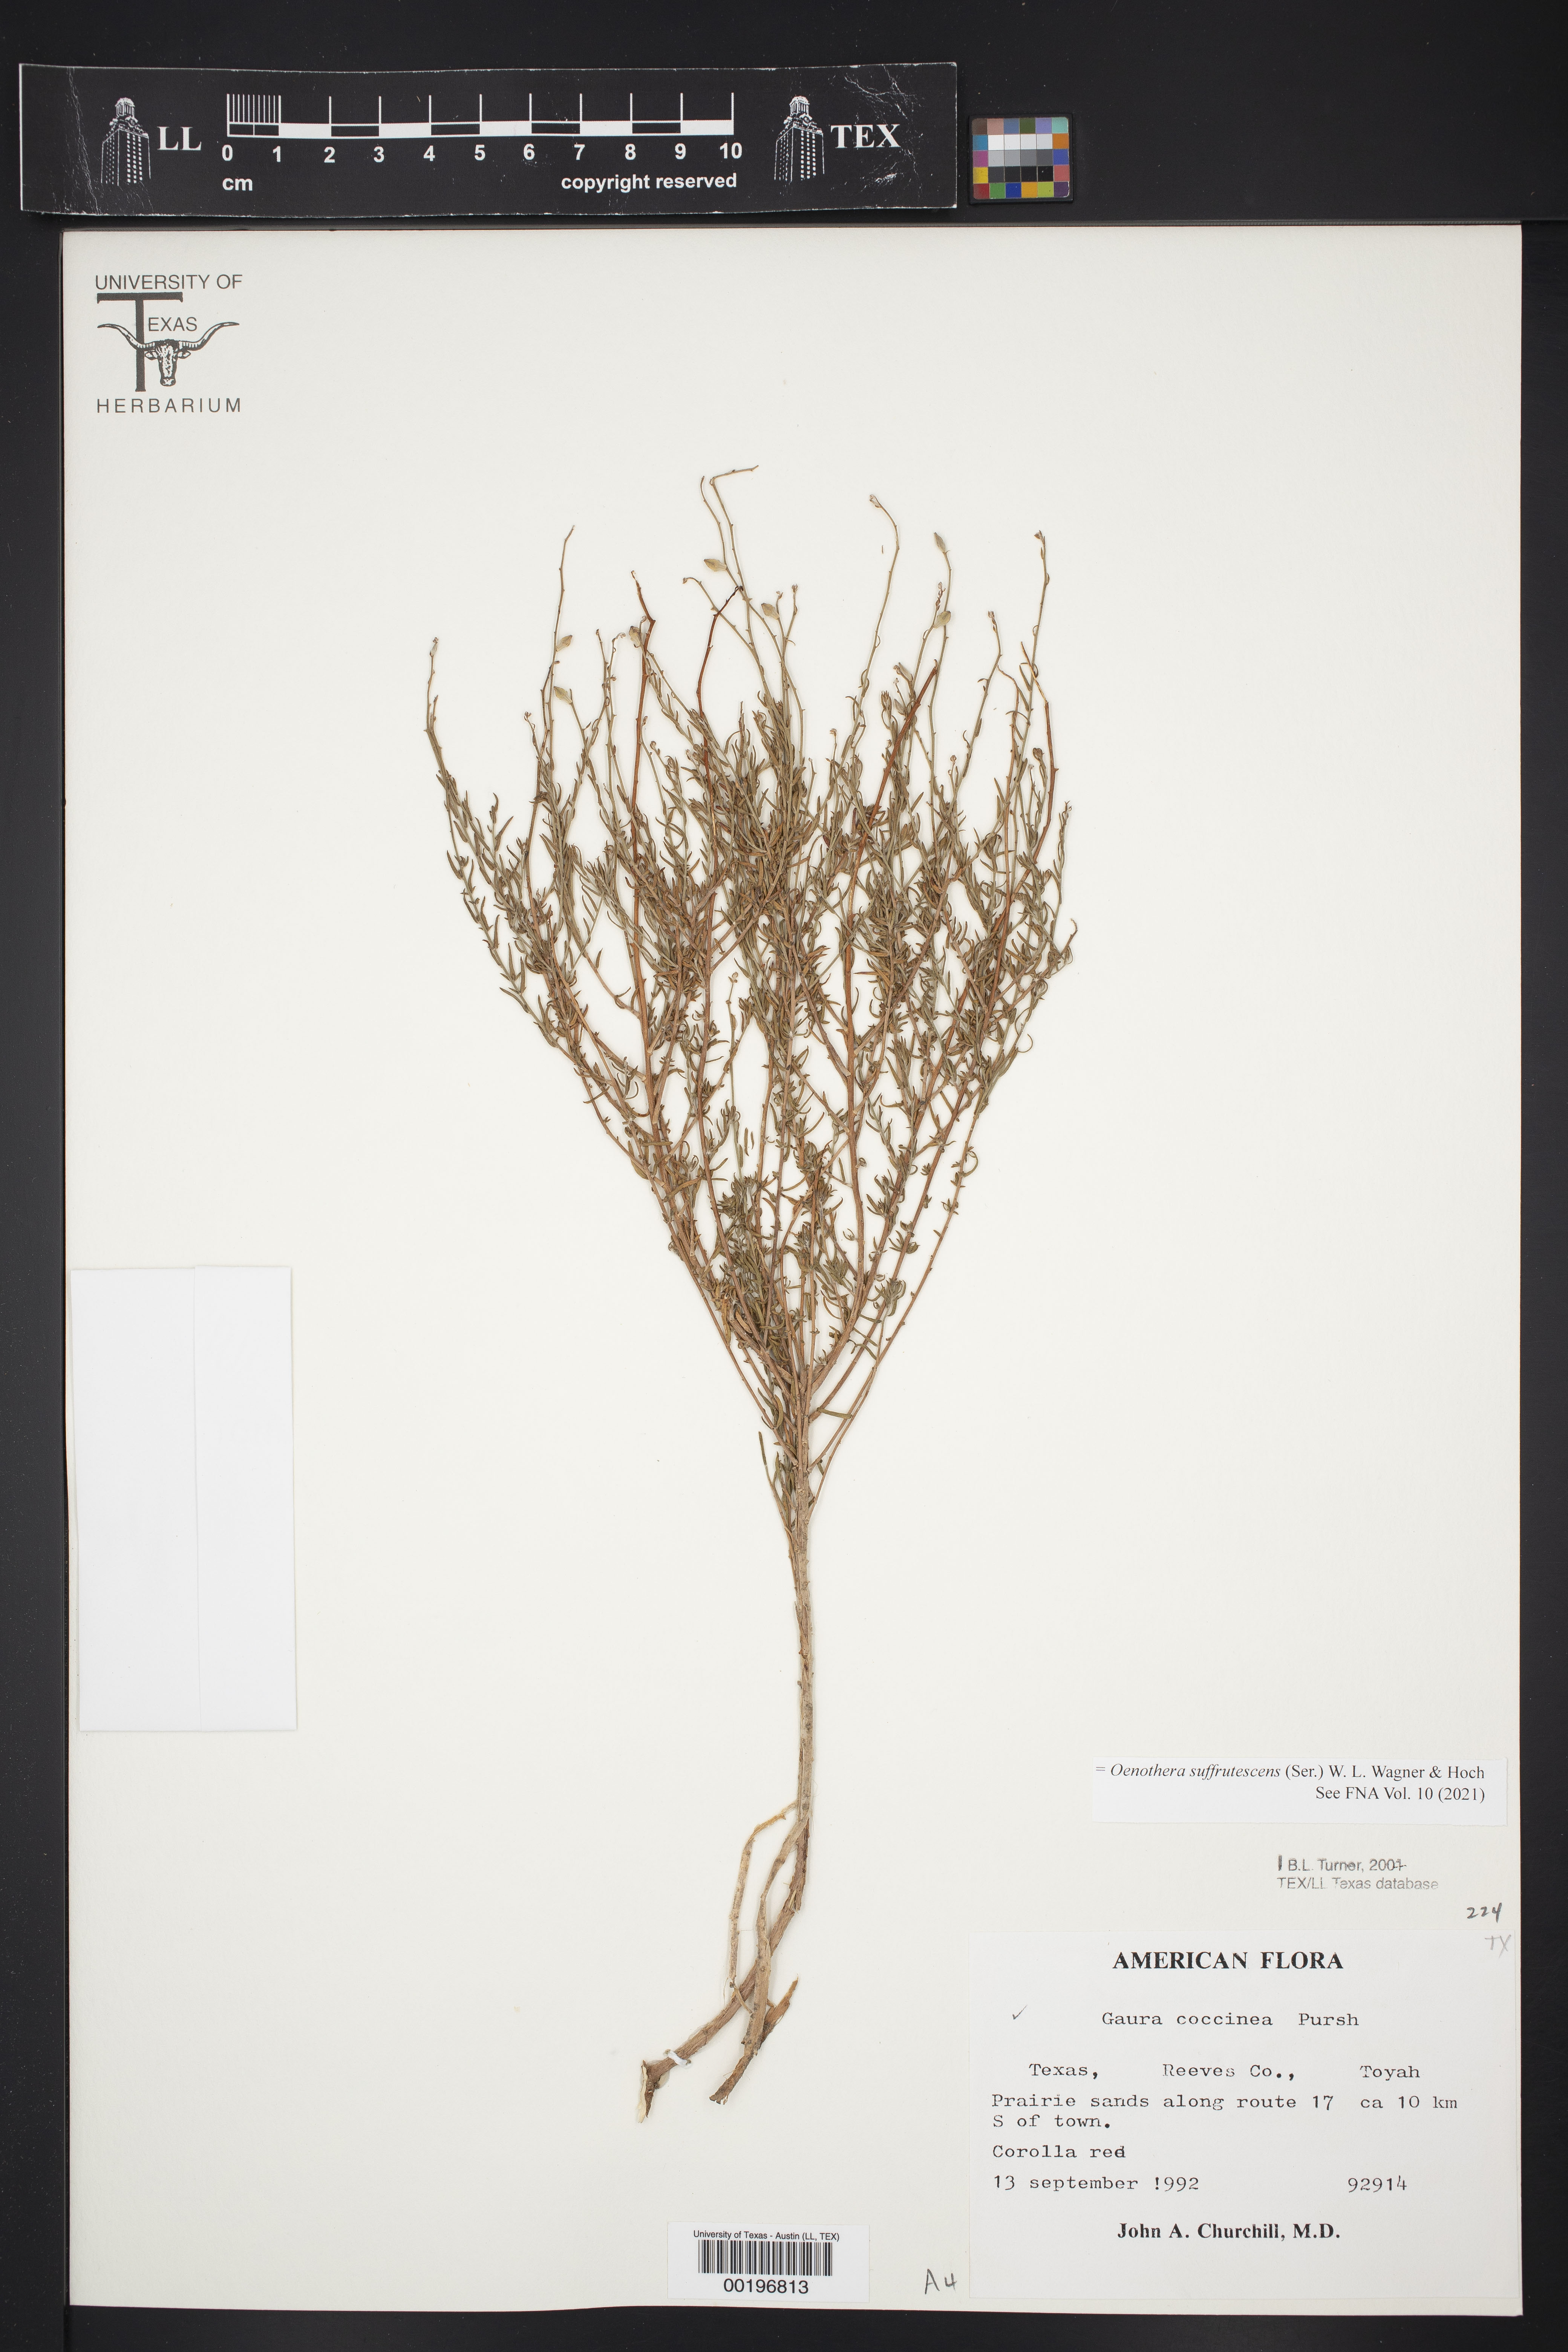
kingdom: Plantae
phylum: Tracheophyta
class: Magnoliopsida
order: Myrtales
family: Onagraceae
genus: Oenothera
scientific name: Oenothera suffrutescens
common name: Scarlet beeblossom
